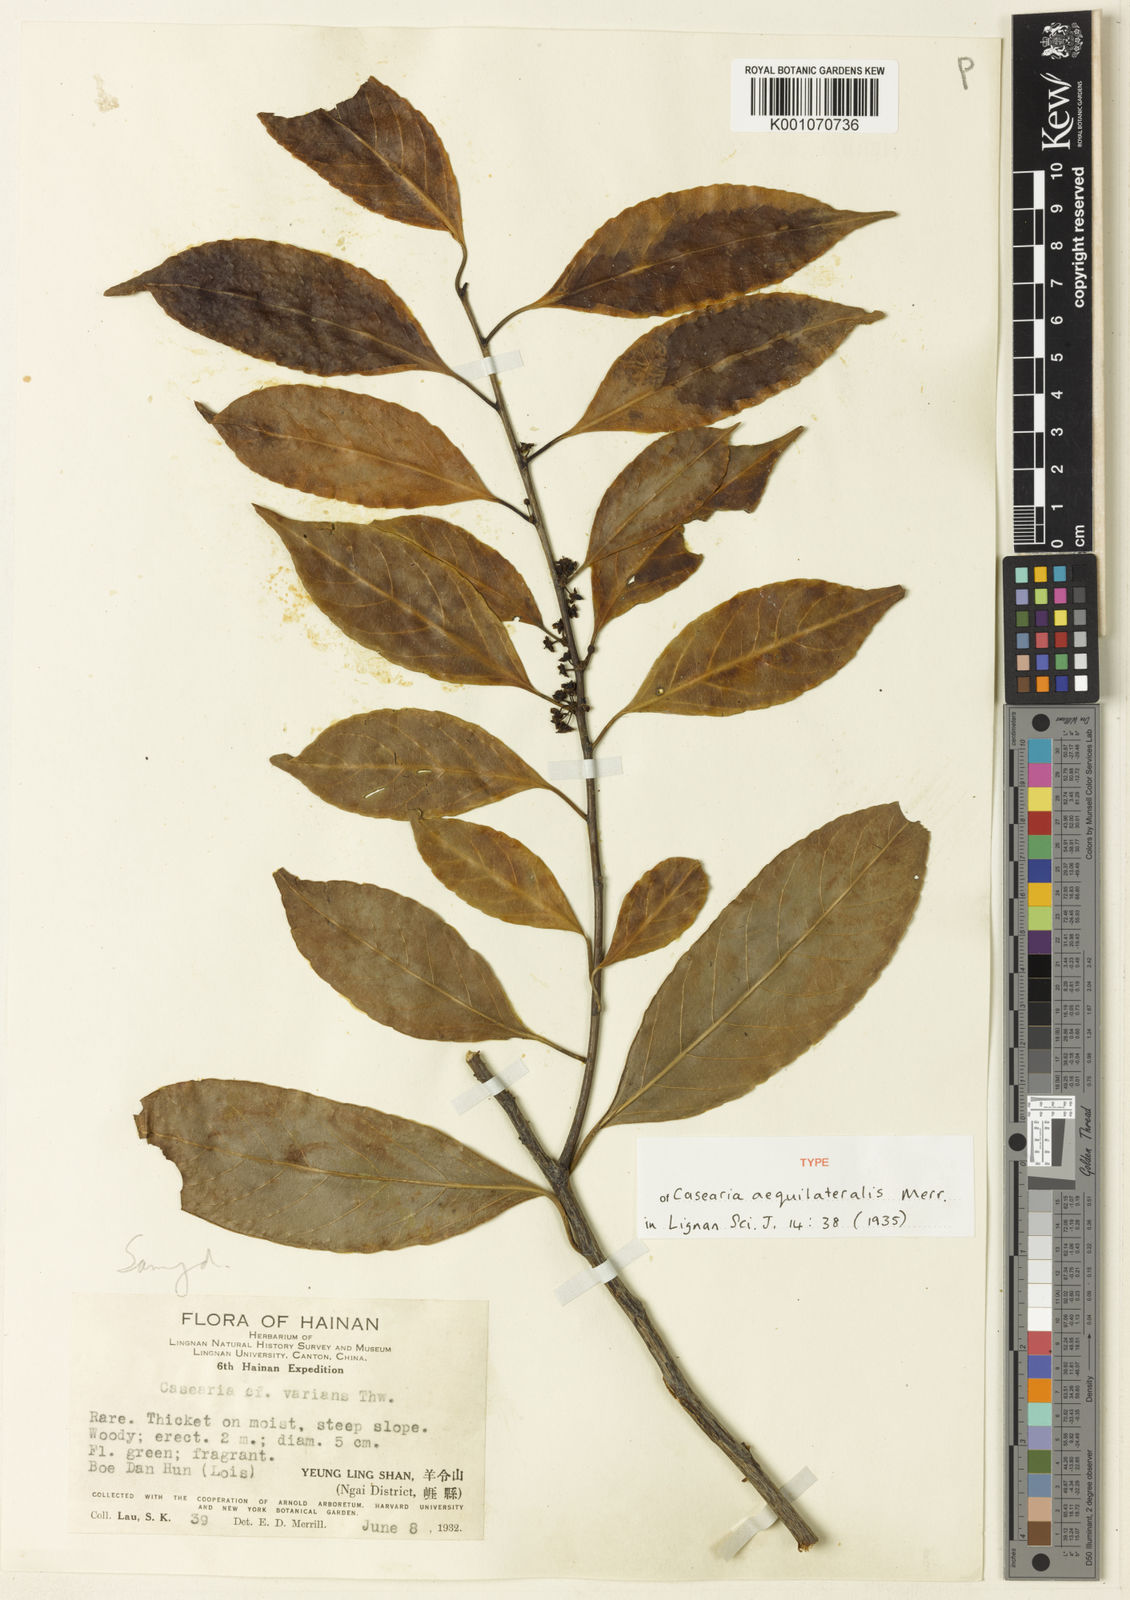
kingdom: Plantae
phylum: Tracheophyta
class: Magnoliopsida
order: Malpighiales
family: Salicaceae
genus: Casearia
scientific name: Casearia membranacea
